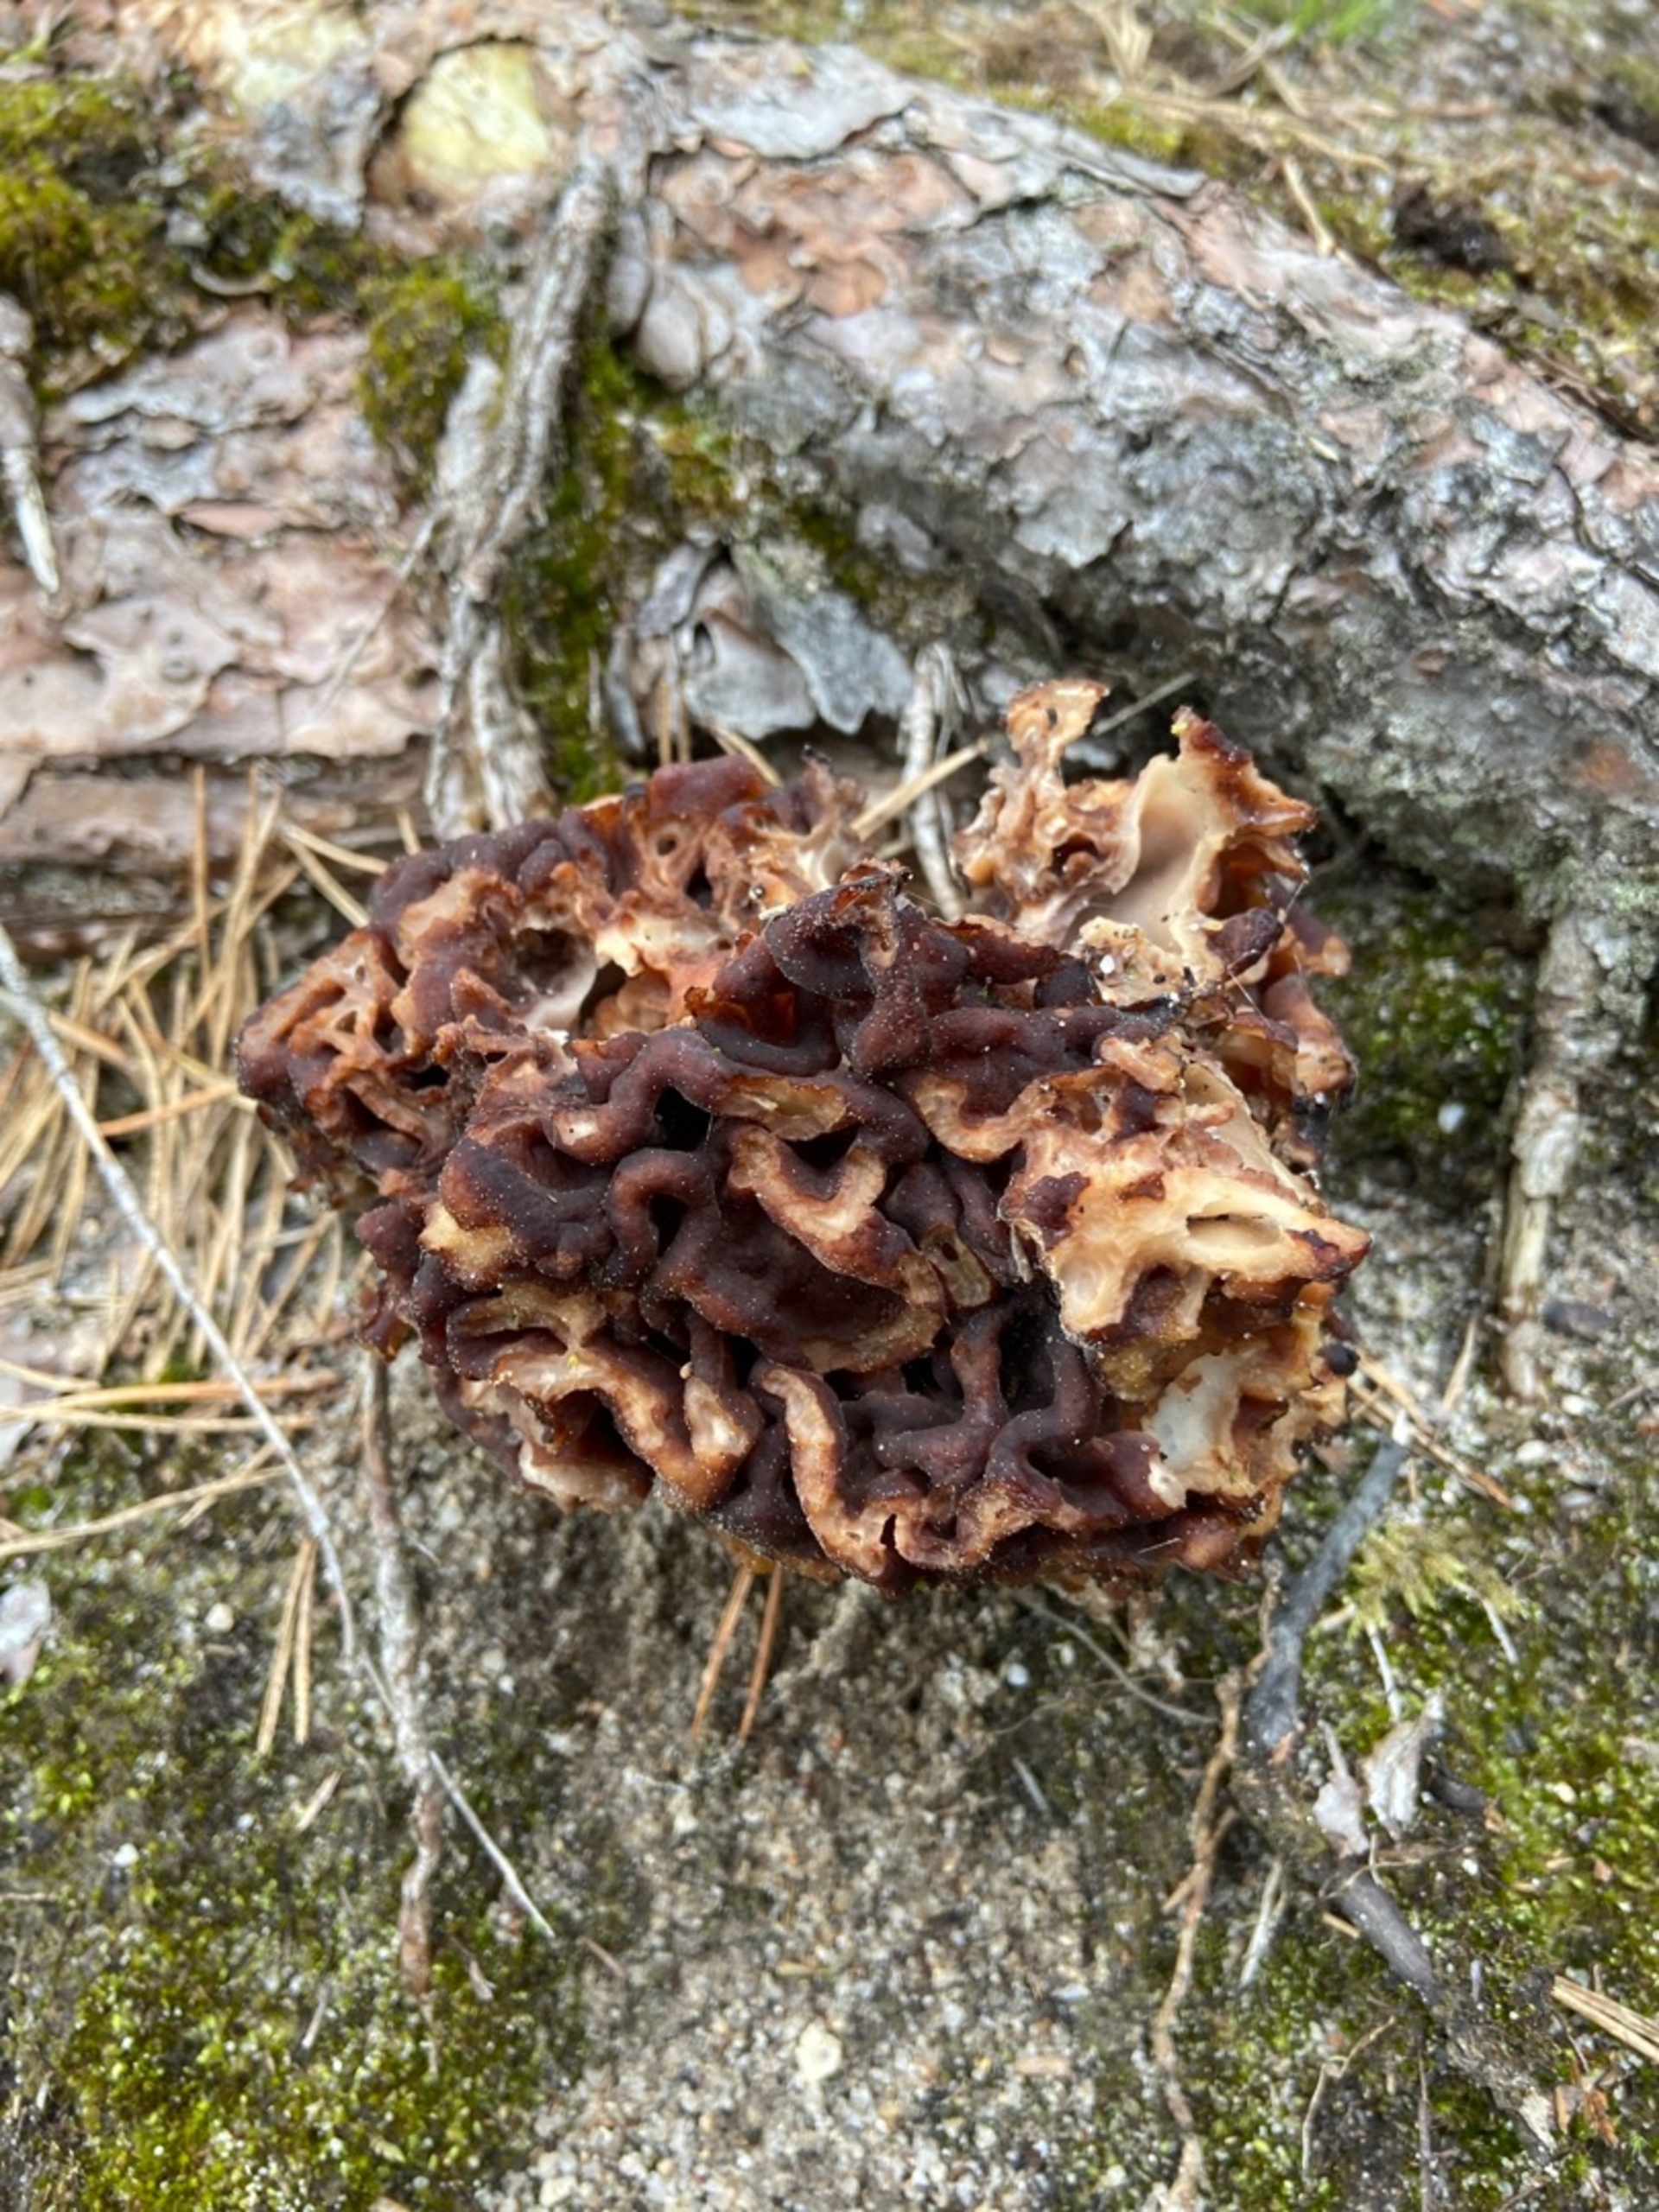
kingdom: Fungi
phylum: Ascomycota
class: Pezizomycetes
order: Pezizales
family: Discinaceae
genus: Gyromitra
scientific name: Gyromitra esculenta
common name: Ægte stenmorkel
